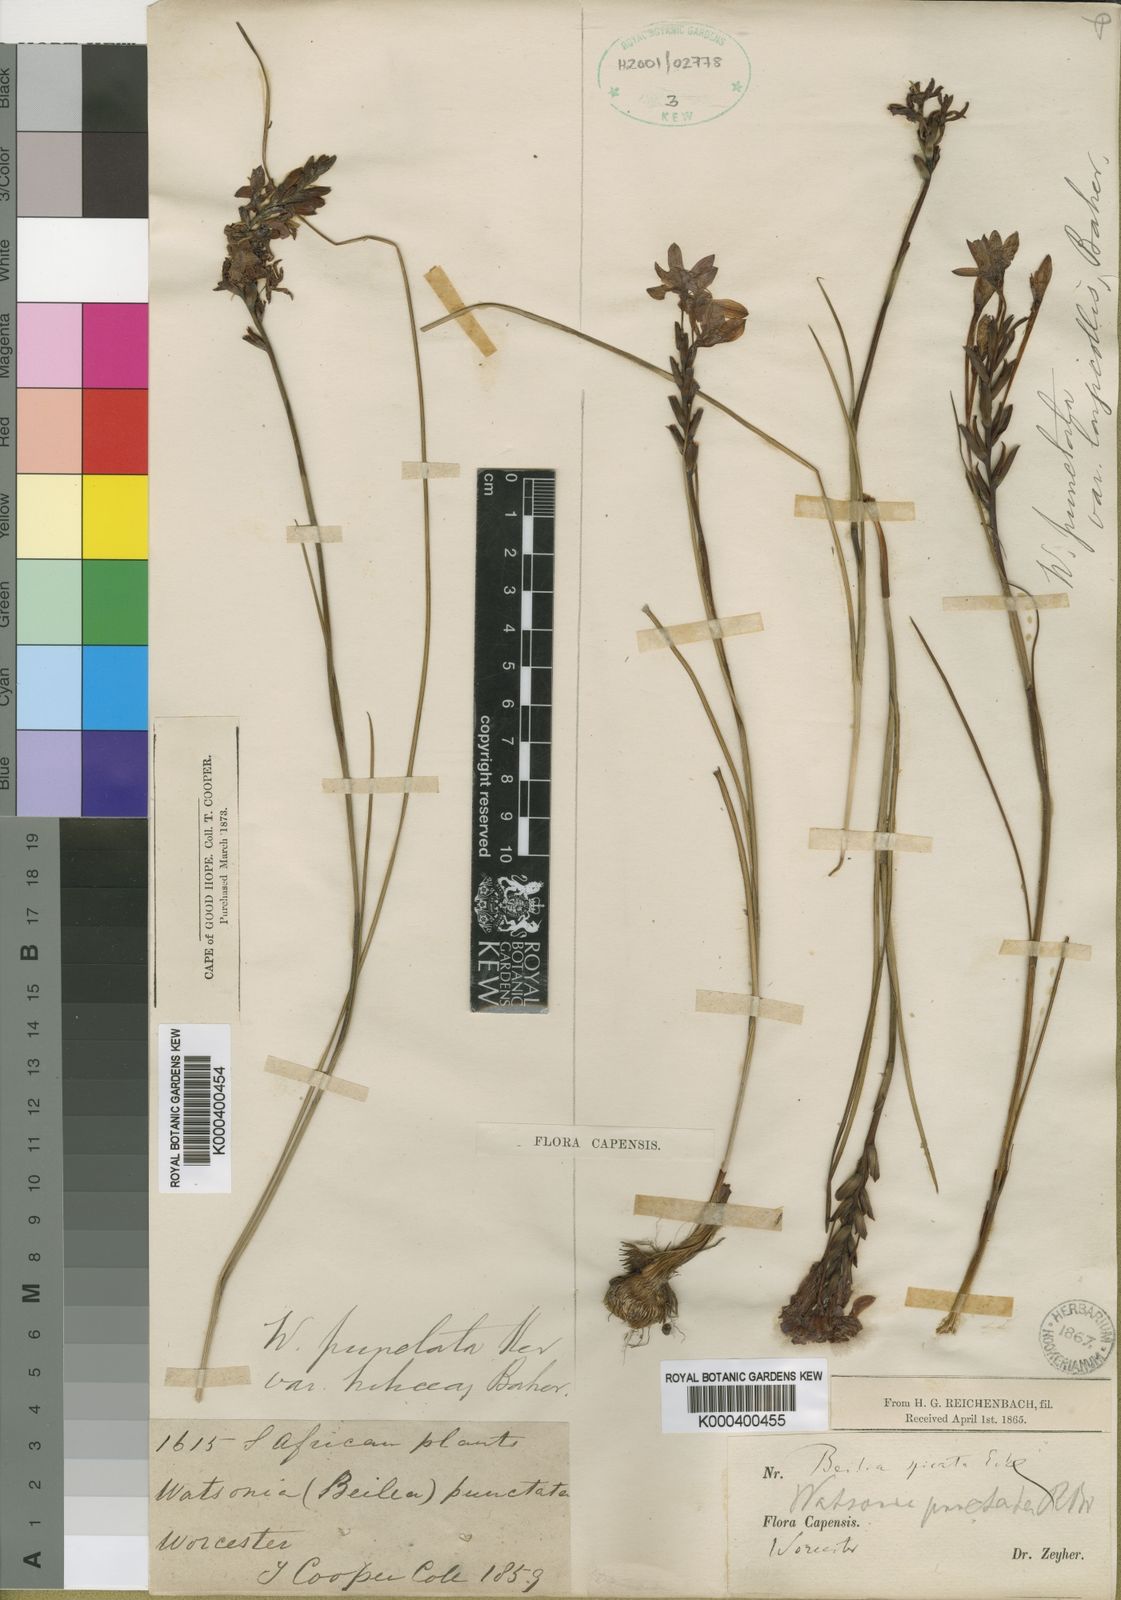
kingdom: Plantae
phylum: Tracheophyta
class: Liliopsida
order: Asparagales
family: Iridaceae
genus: Thereianthus
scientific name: Thereianthus longicollis
